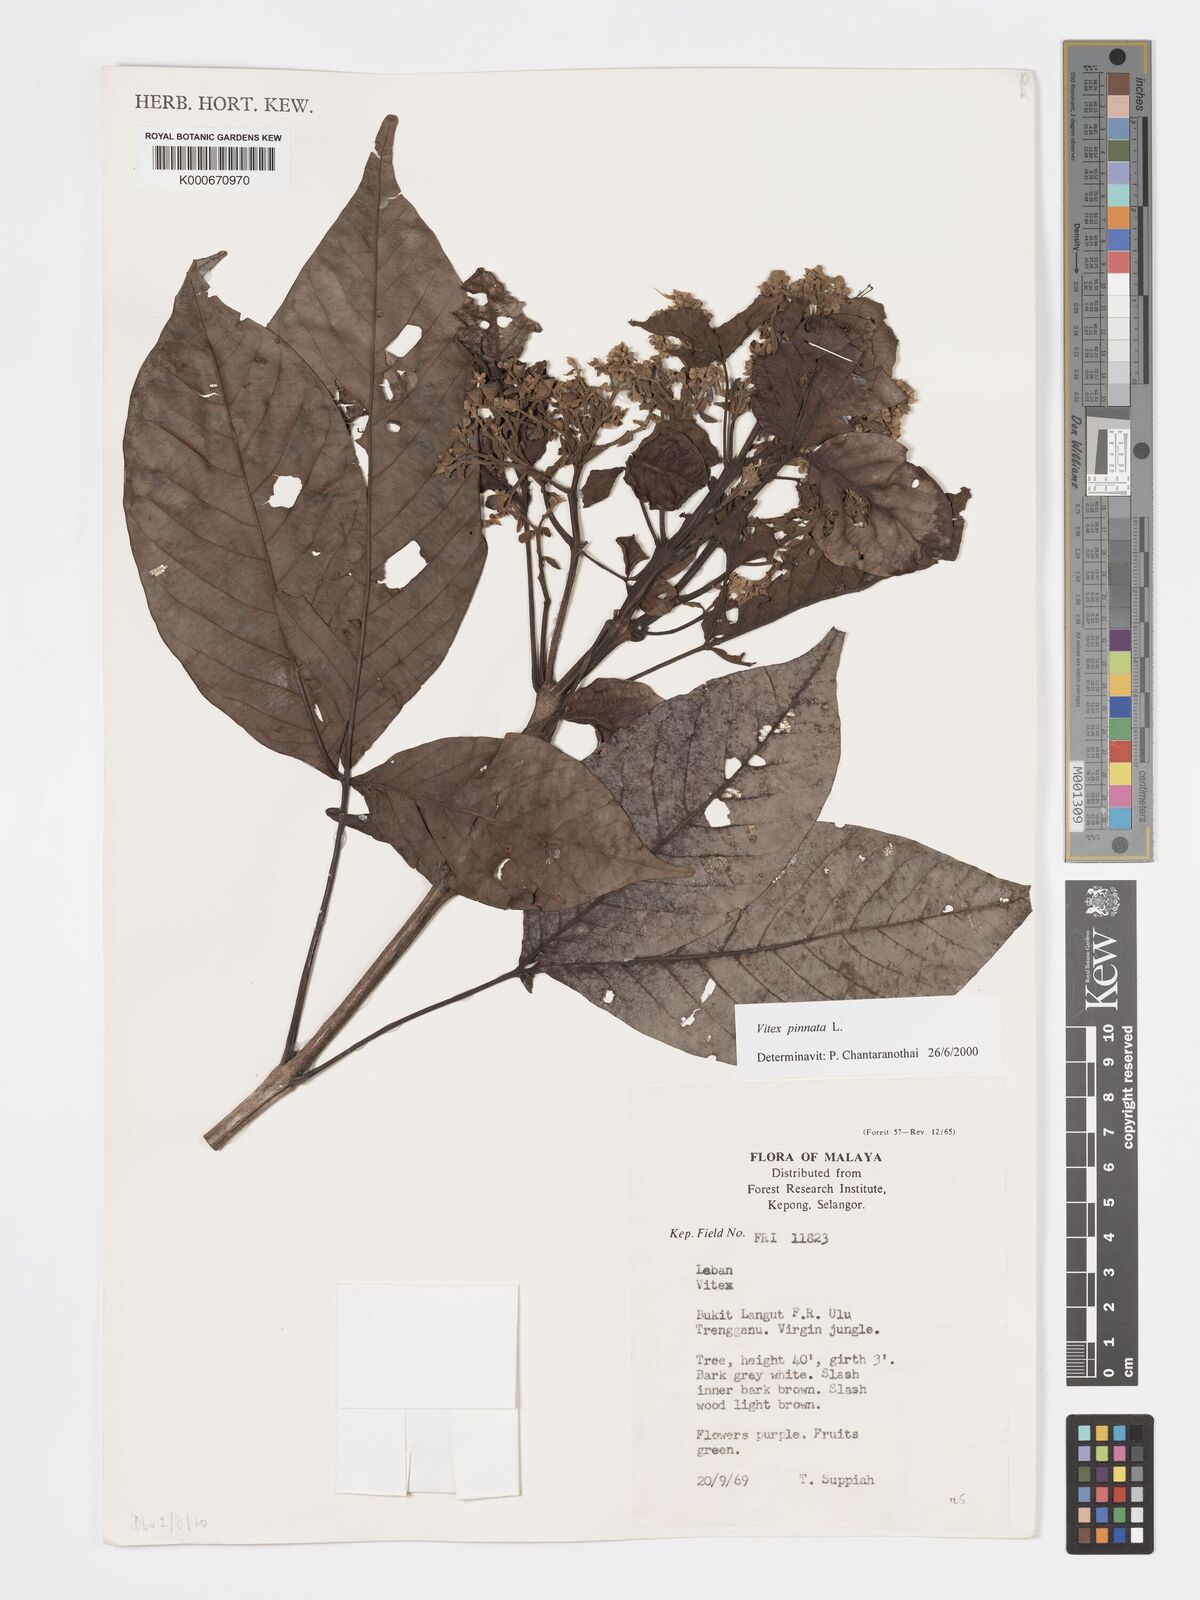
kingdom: Plantae
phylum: Tracheophyta
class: Magnoliopsida
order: Lamiales
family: Lamiaceae
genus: Vitex
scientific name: Vitex pinnata
